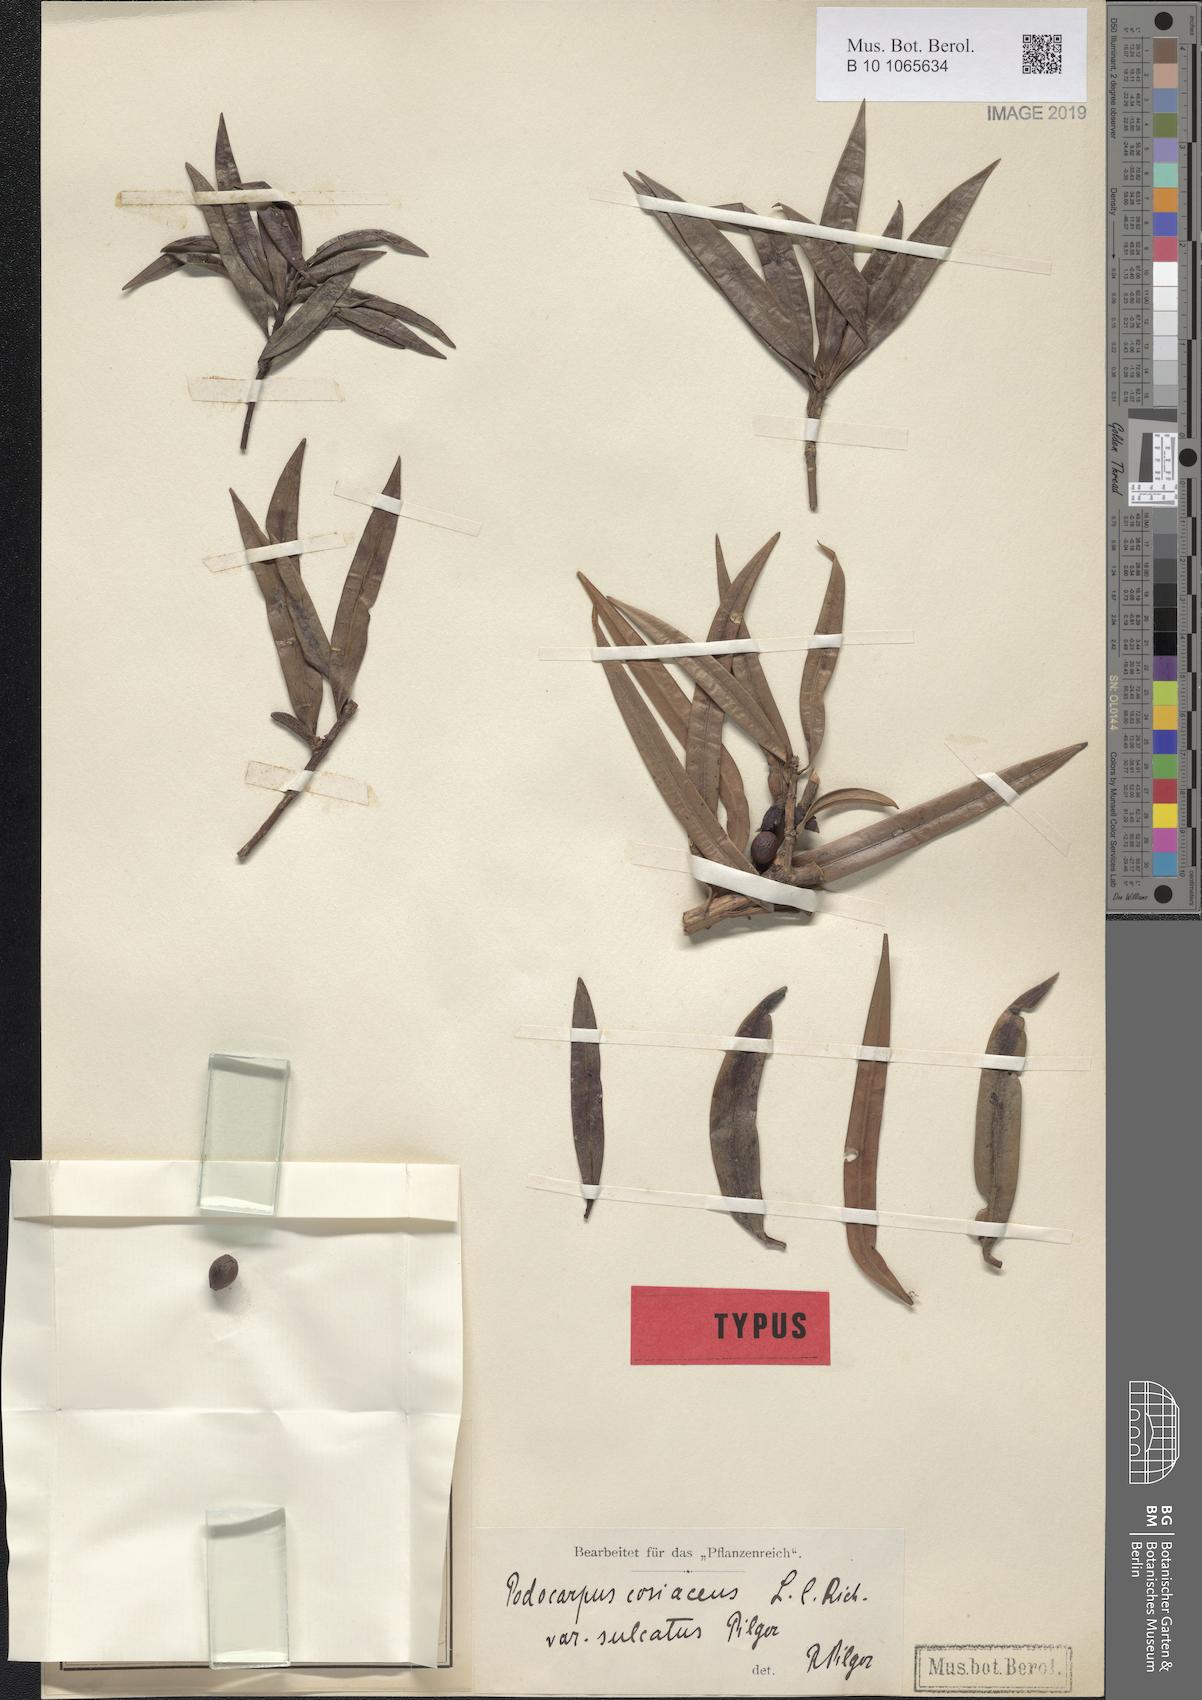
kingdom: Plantae
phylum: Tracheophyta
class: Pinopsida
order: Pinales
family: Podocarpaceae
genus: Podocarpus
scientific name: Podocarpus coriaceus
